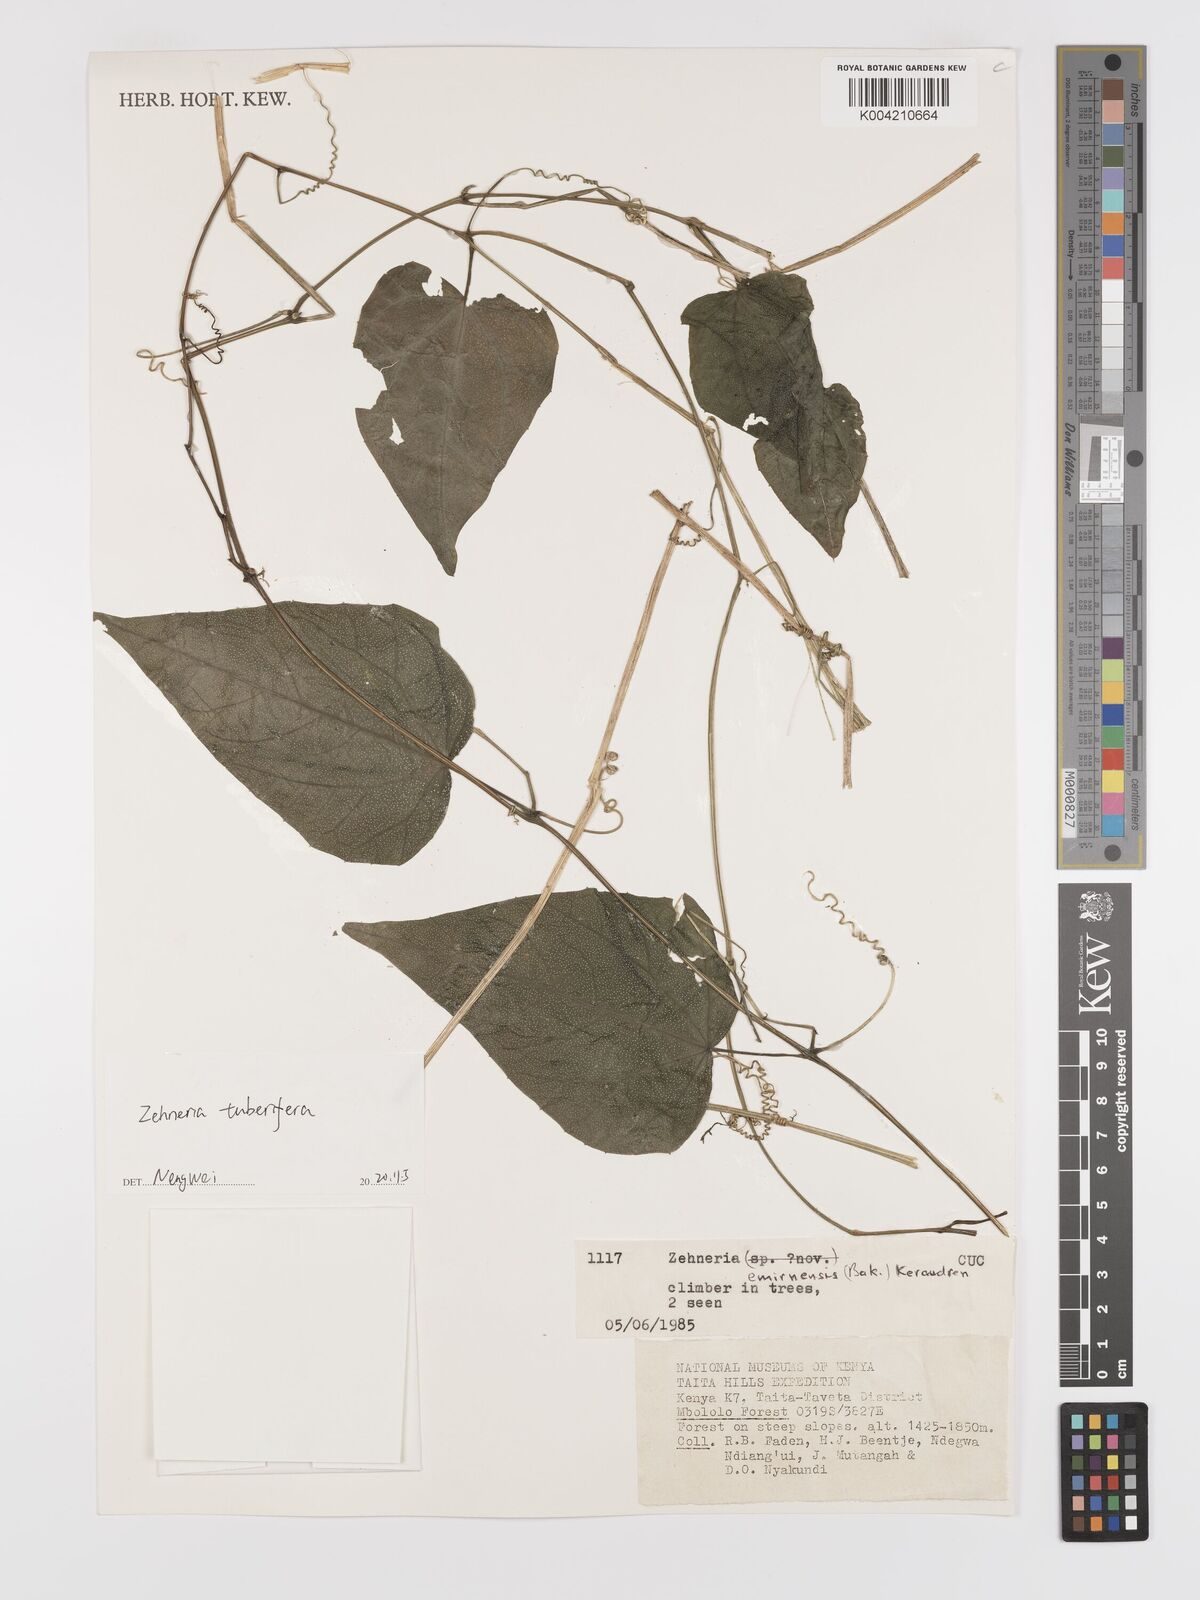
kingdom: Plantae
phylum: Tracheophyta
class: Magnoliopsida
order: Cucurbitales
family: Cucurbitaceae
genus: Zehneria
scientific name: Zehneria tuberifera
